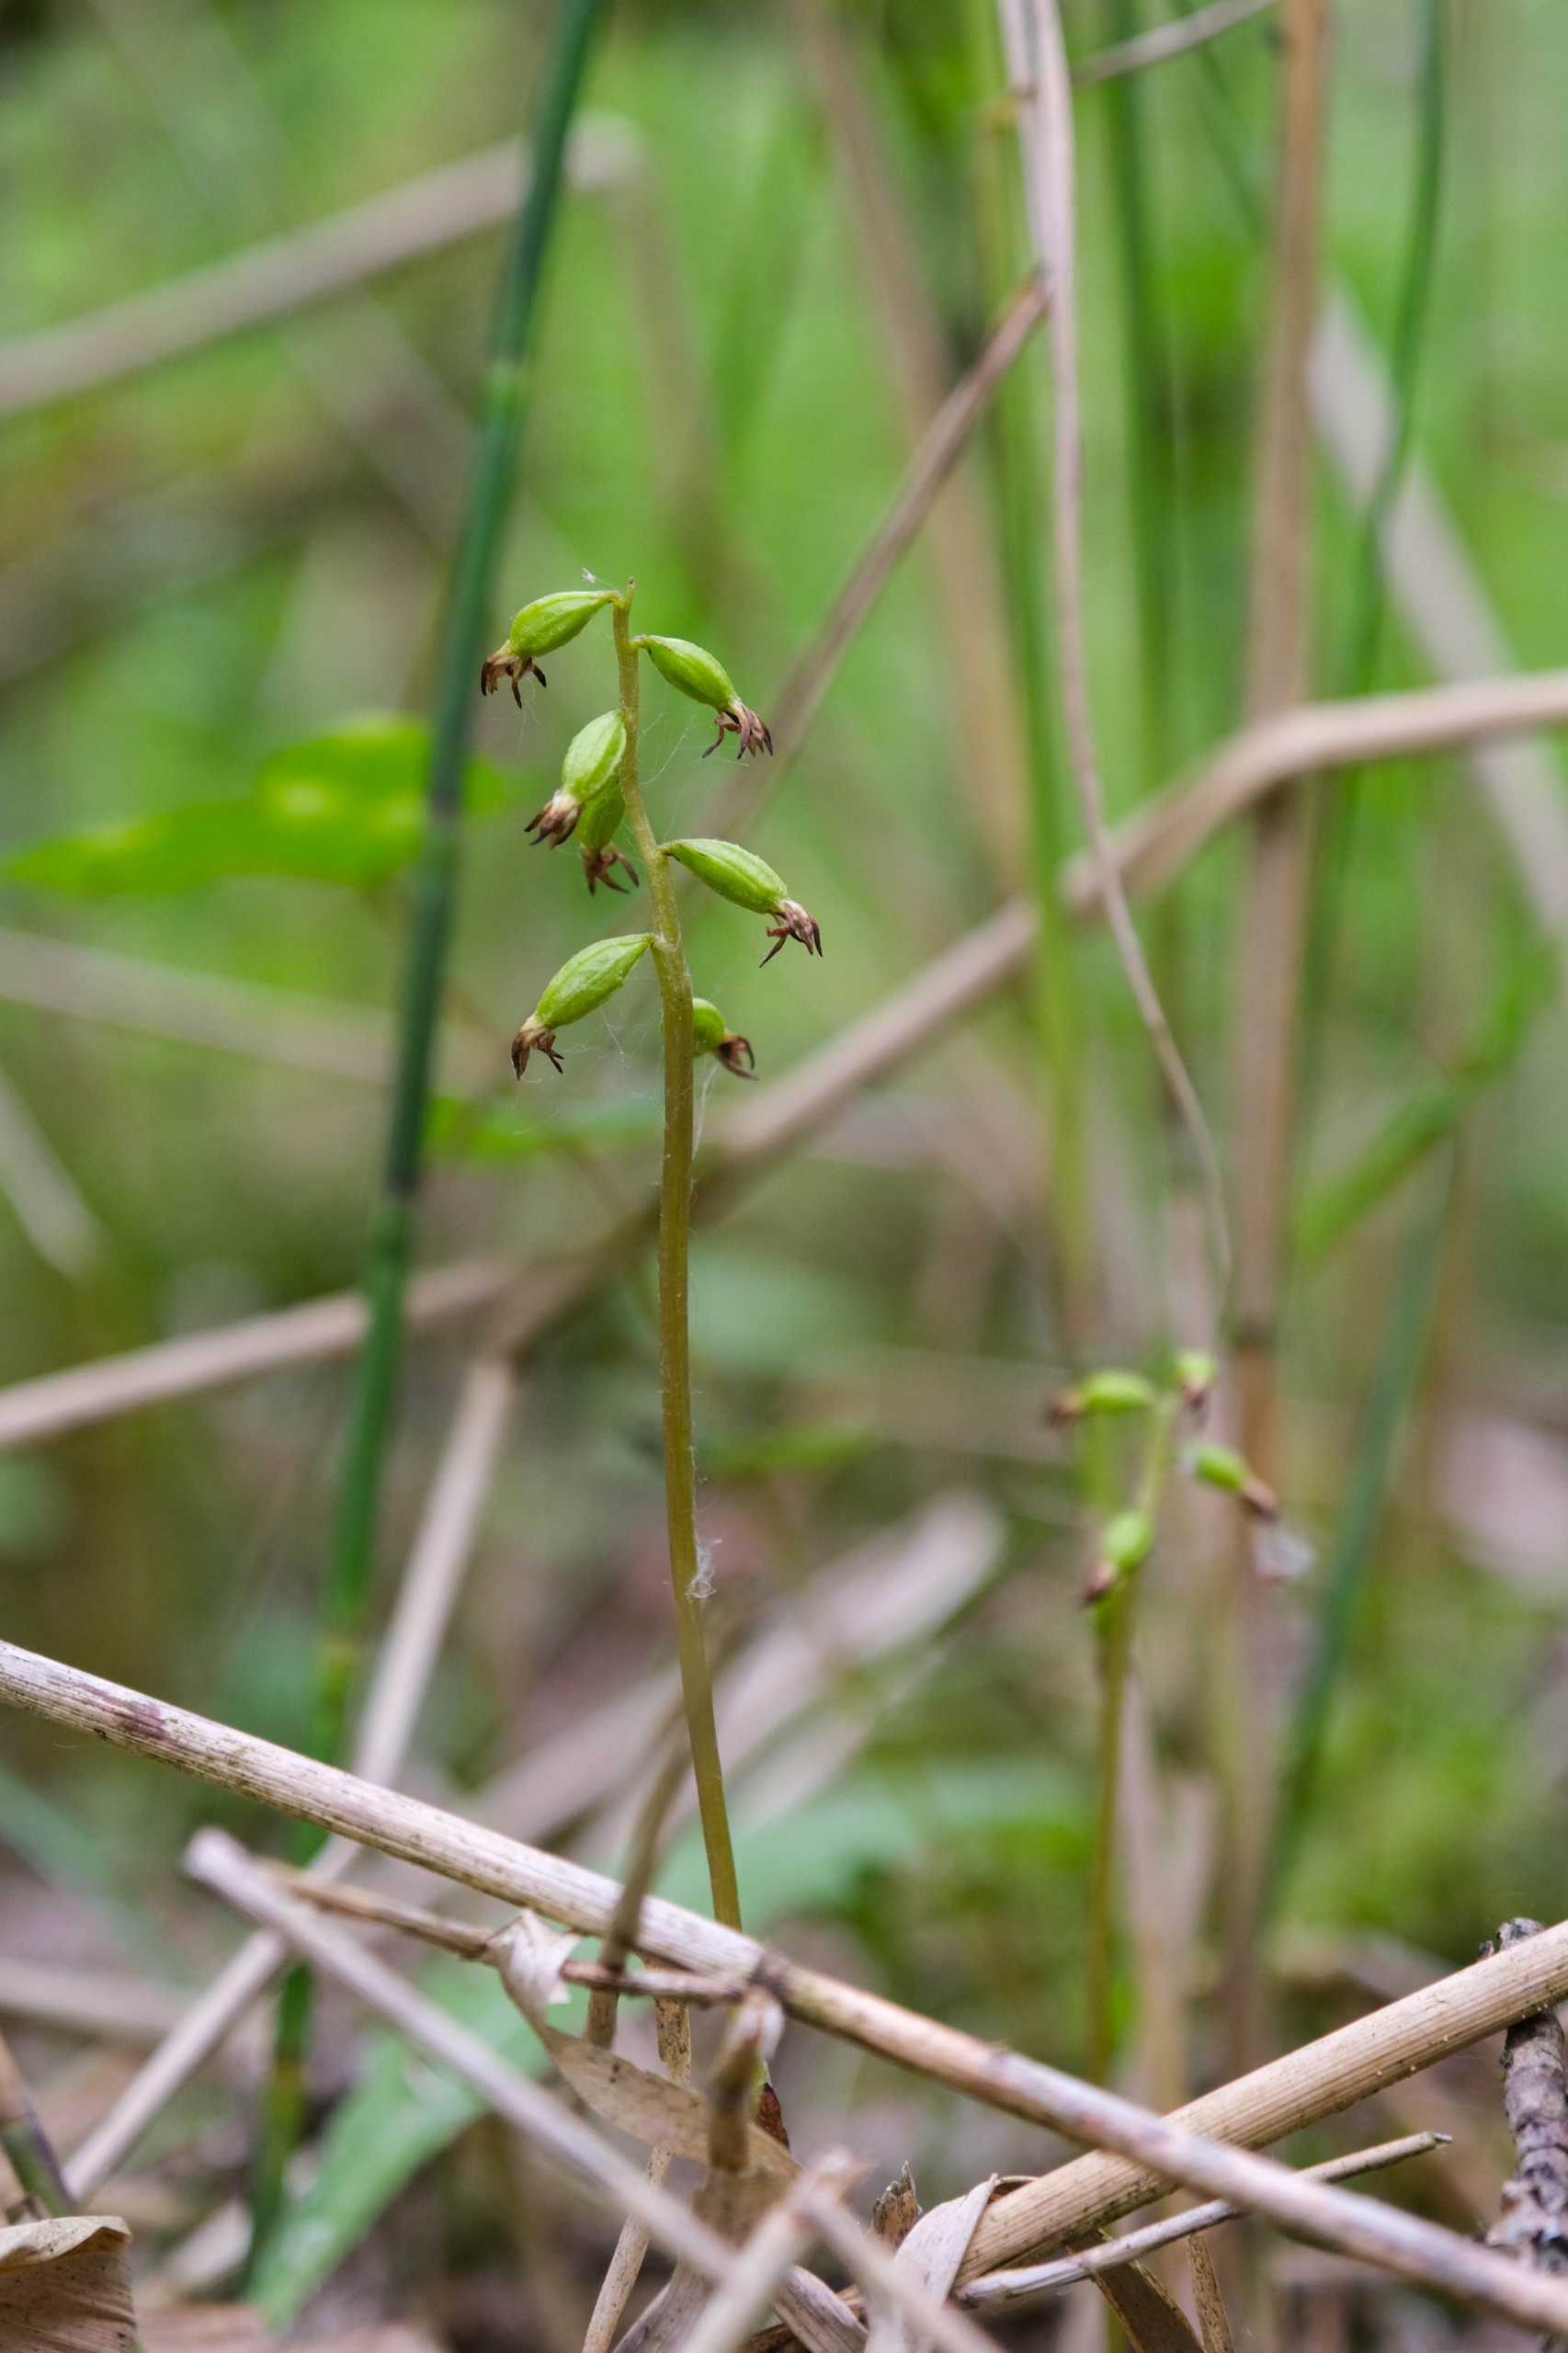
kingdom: Plantae
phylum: Tracheophyta
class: Liliopsida
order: Asparagales
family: Orchidaceae
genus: Corallorhiza
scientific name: Corallorhiza trifida
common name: Koralrod
